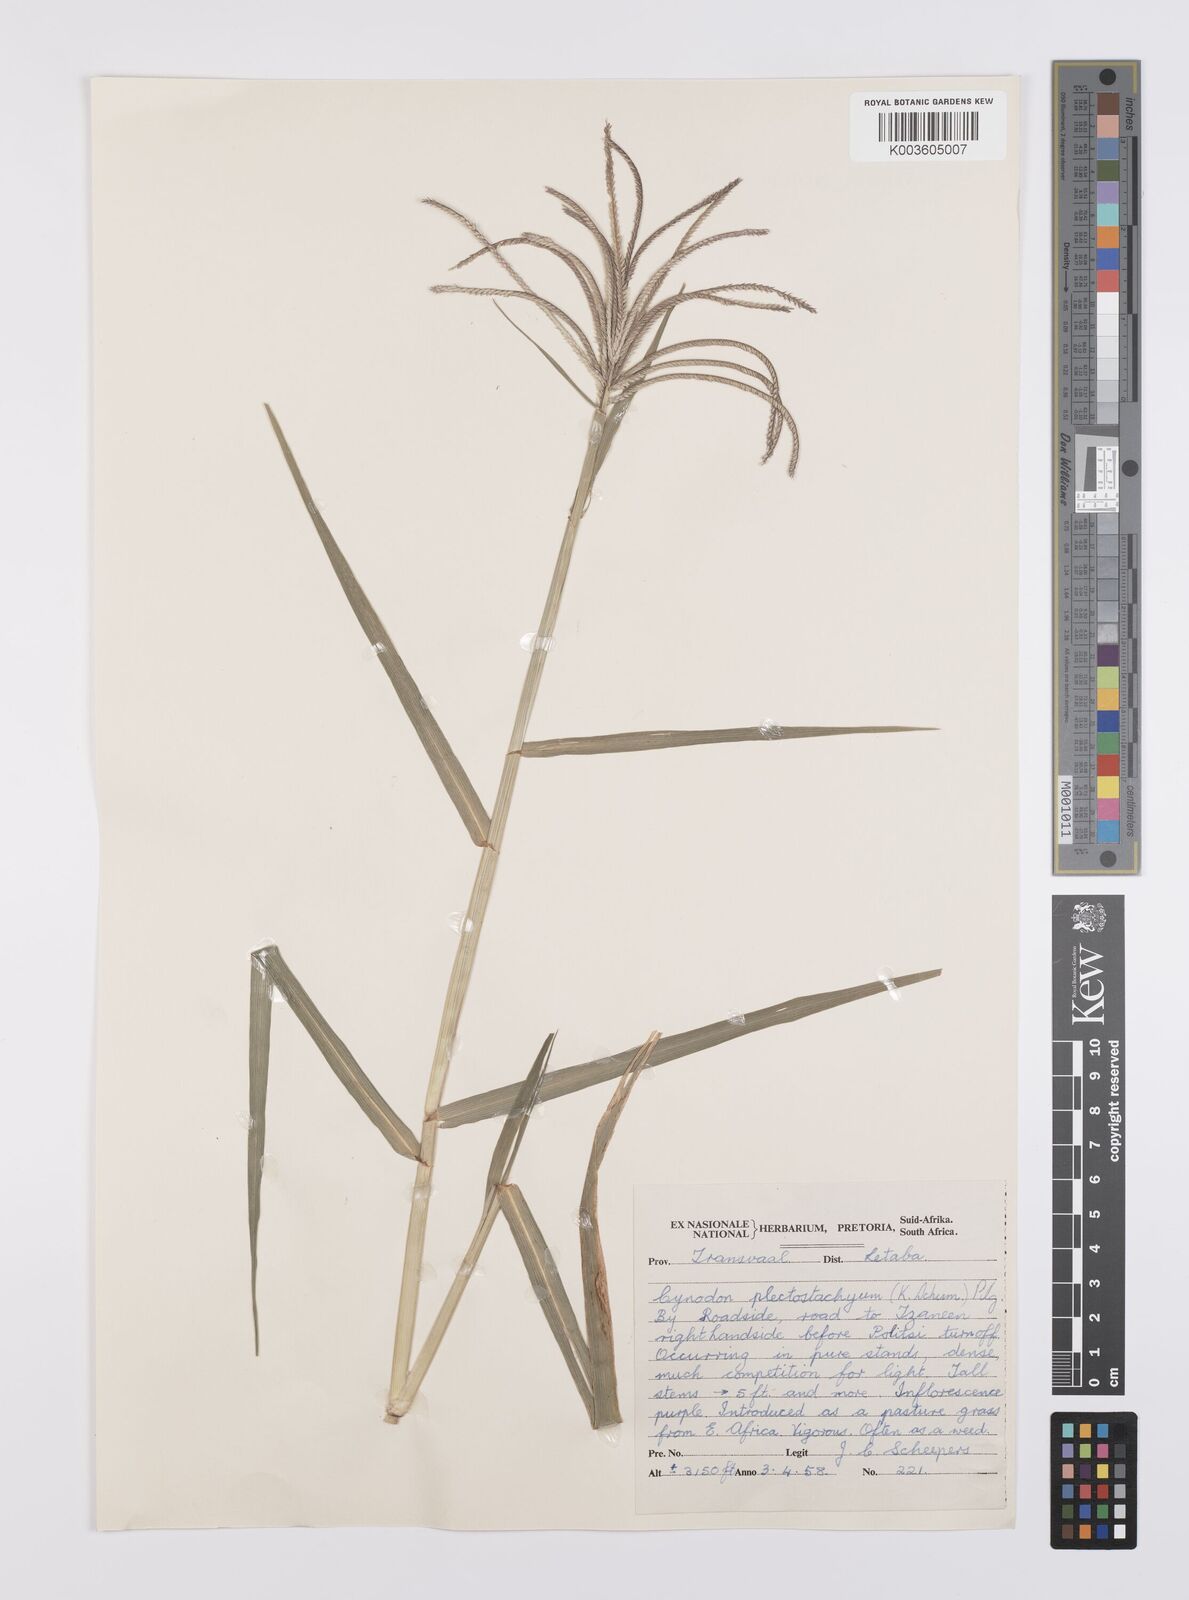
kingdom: Plantae
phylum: Tracheophyta
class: Liliopsida
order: Poales
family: Poaceae
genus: Cynodon
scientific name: Cynodon aethiopicus
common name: Ethiopian dogstooth grass
